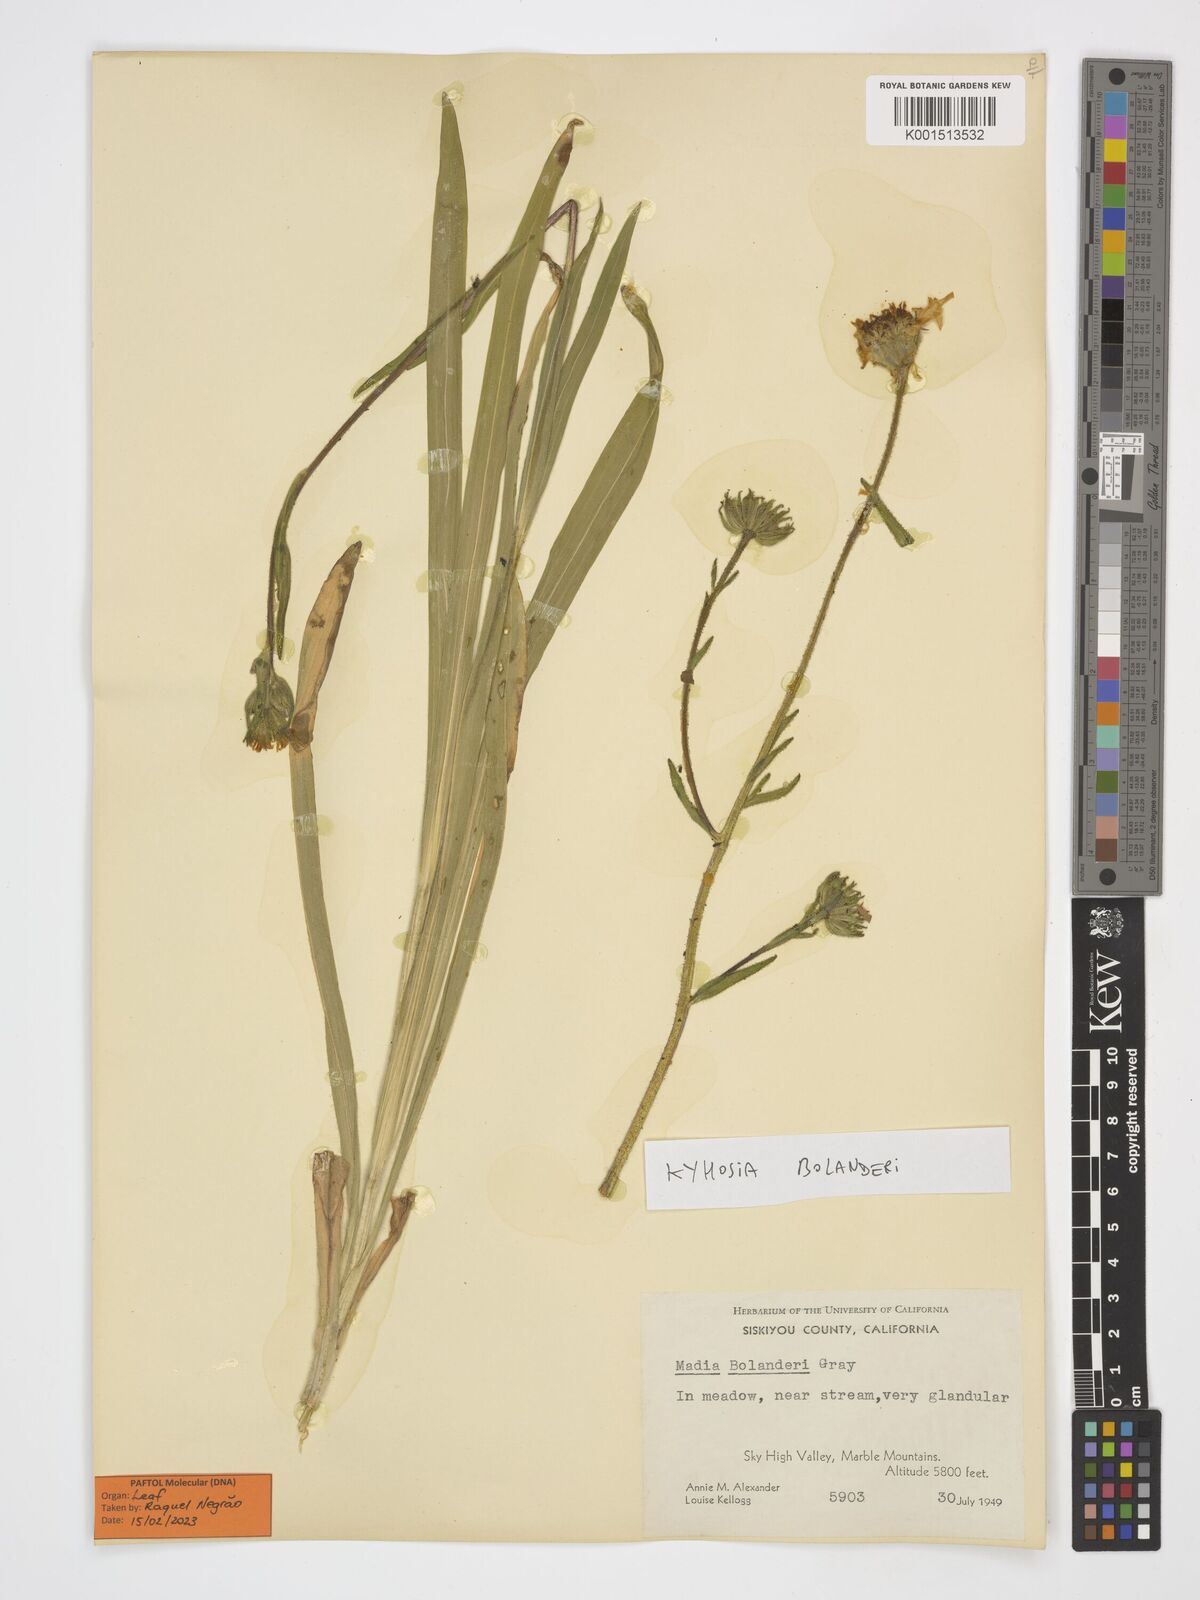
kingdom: Plantae
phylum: Tracheophyta
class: Magnoliopsida
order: Asterales
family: Asteraceae
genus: Kyhosia
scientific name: Kyhosia bolanderi
